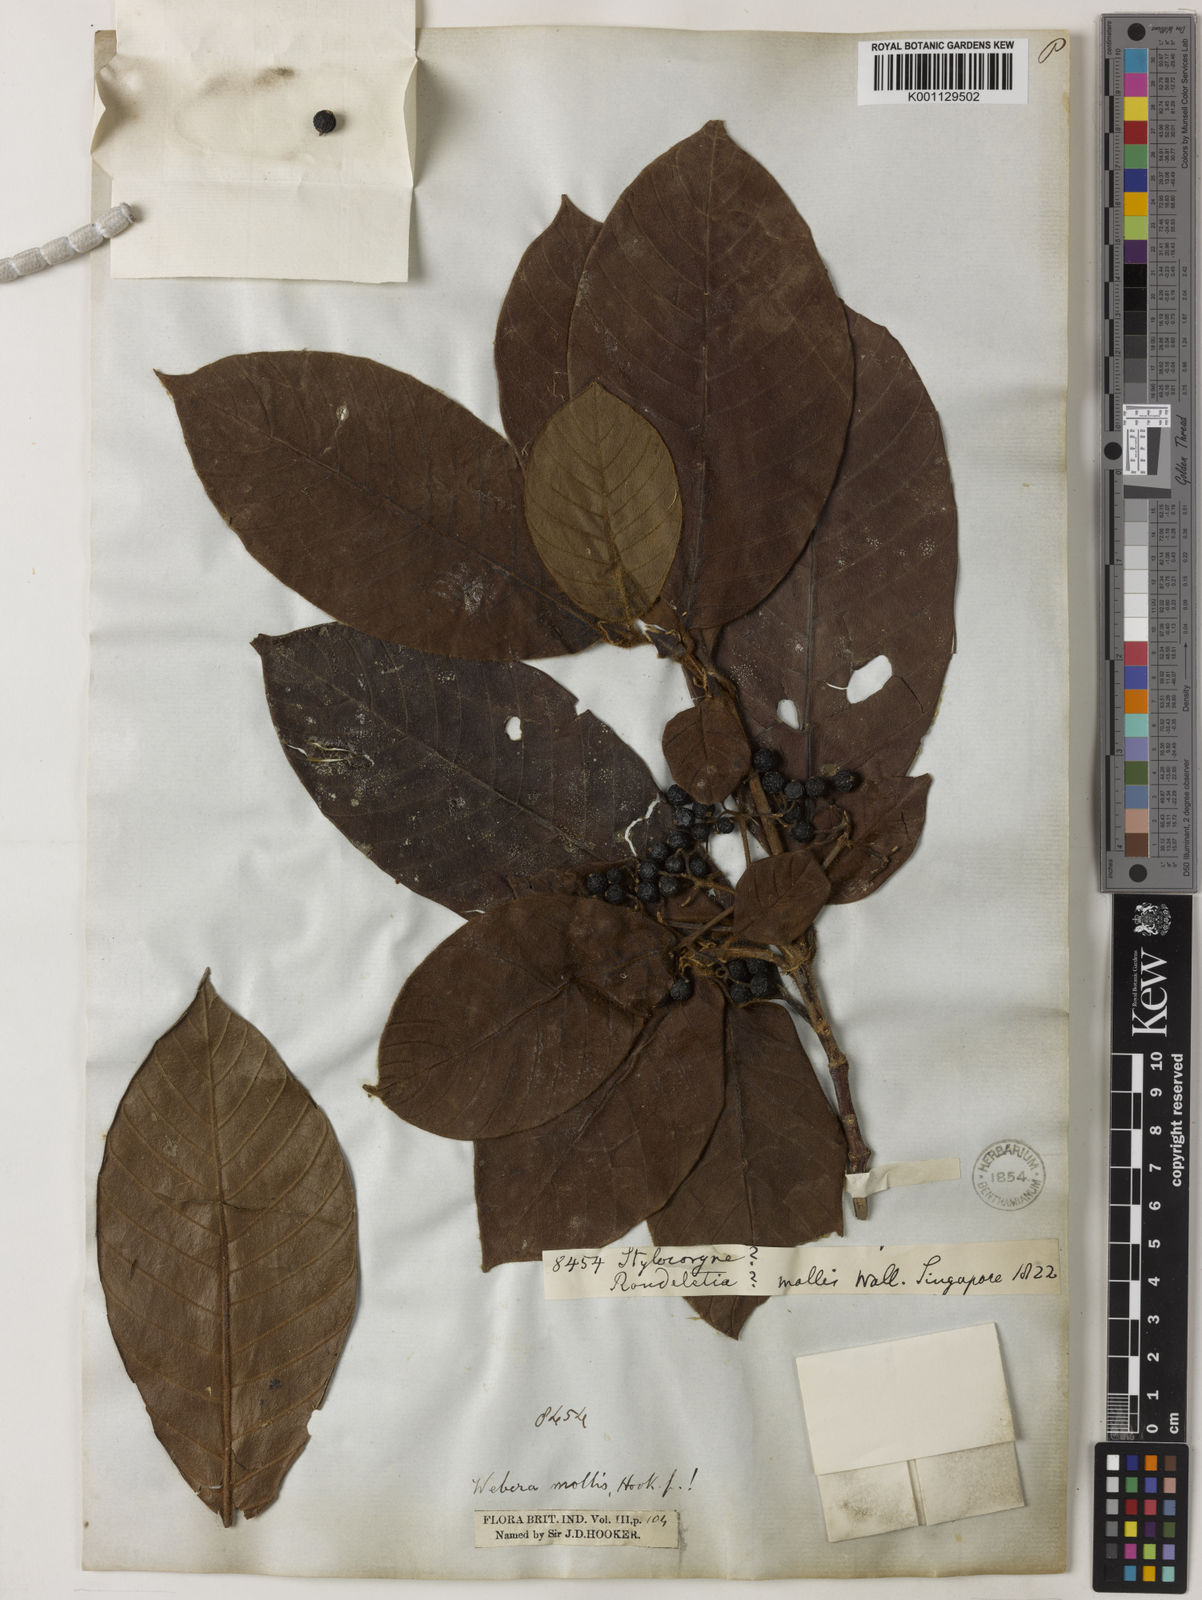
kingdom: Plantae
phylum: Tracheophyta
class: Magnoliopsida
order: Gentianales
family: Rubiaceae
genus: Tarenna
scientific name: Tarenna mollis
